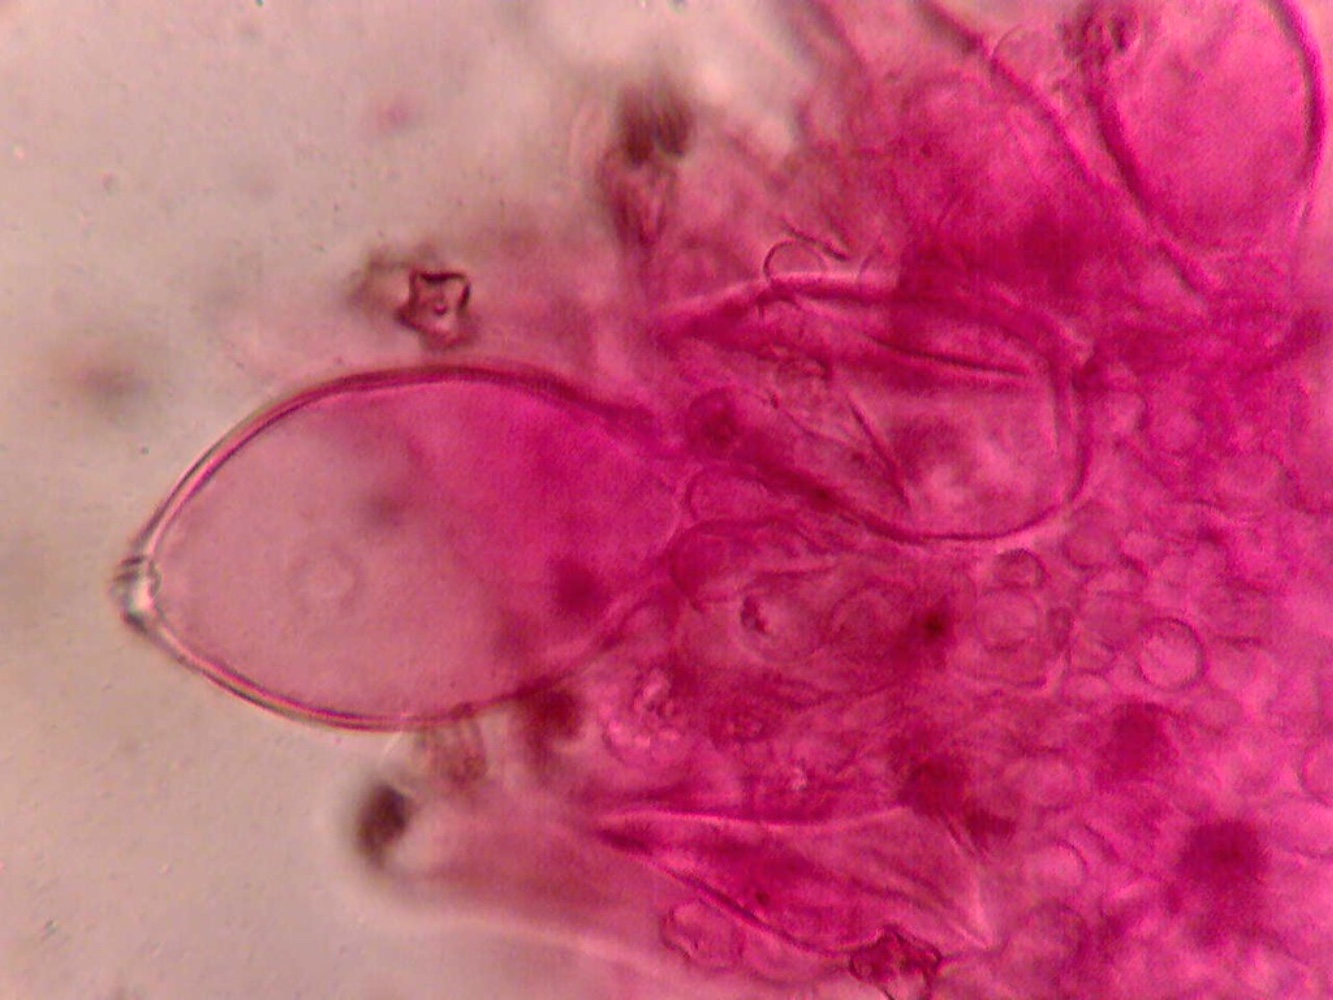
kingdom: Fungi
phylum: Basidiomycota
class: Agaricomycetes
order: Agaricales
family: Inocybaceae
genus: Inocybe
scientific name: Inocybe
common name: trævlhat
